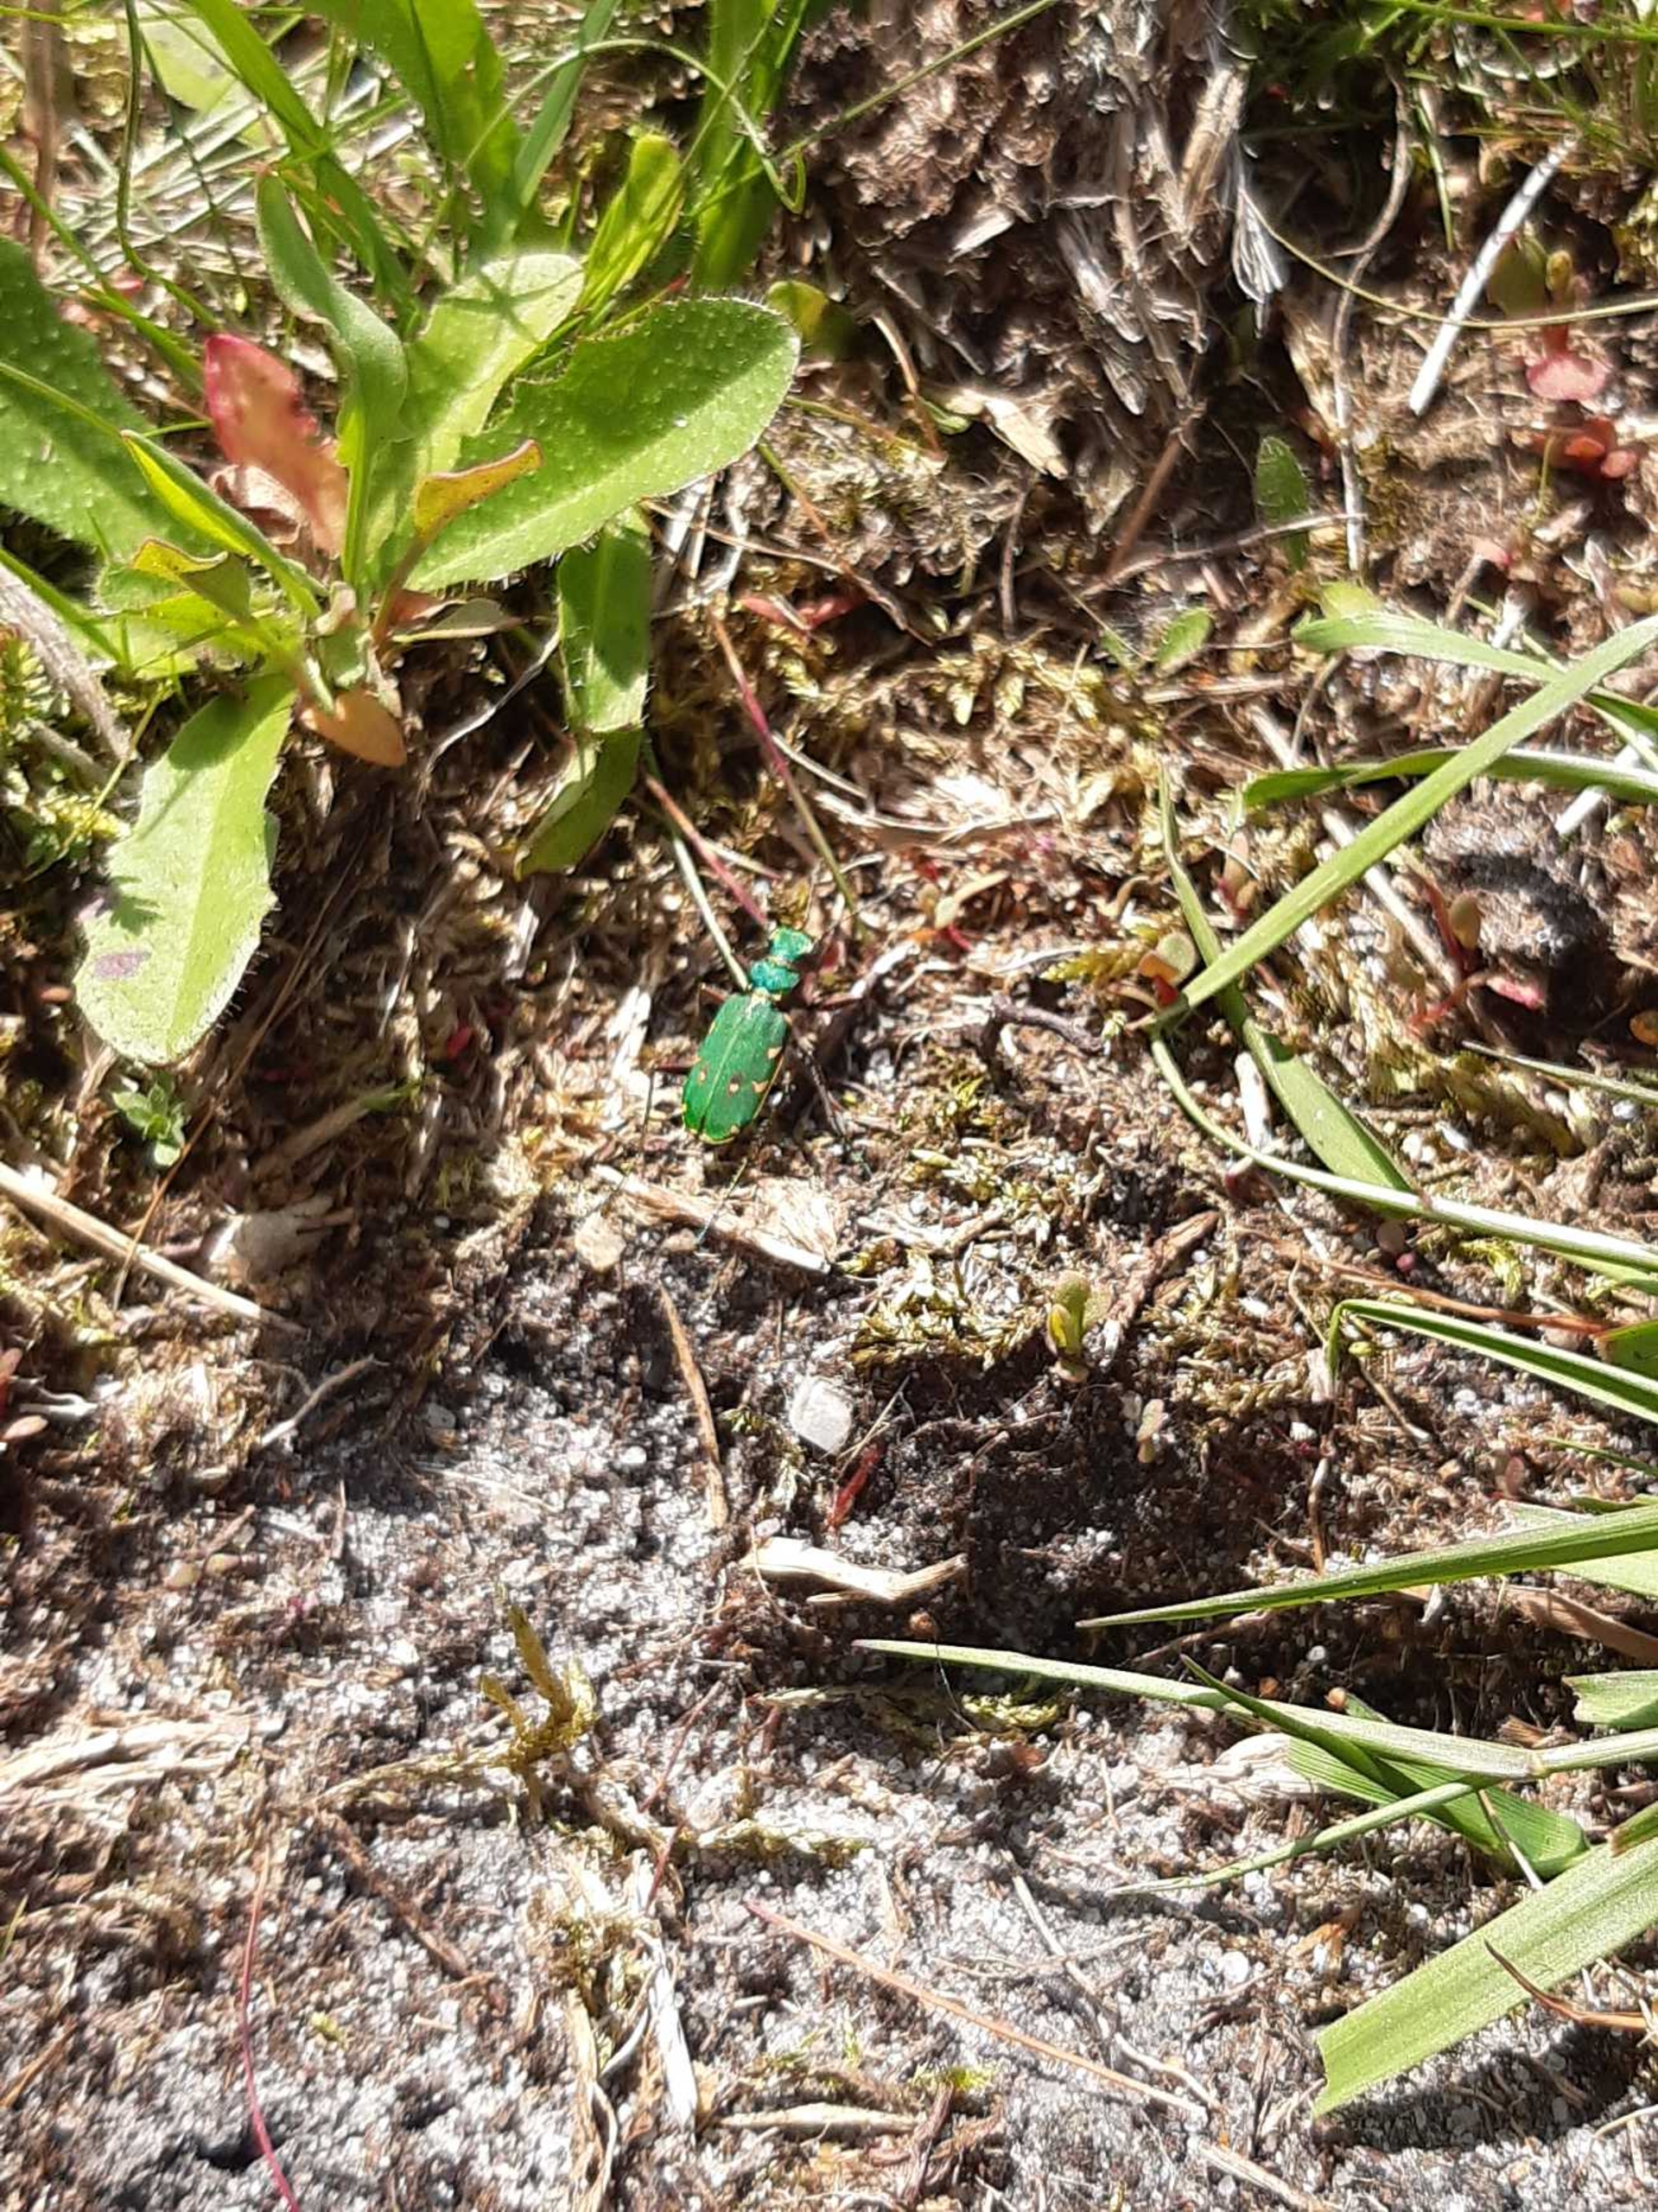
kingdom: Animalia
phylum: Arthropoda
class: Insecta
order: Coleoptera
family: Carabidae
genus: Cicindela
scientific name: Cicindela campestris
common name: Grøn sandspringer
